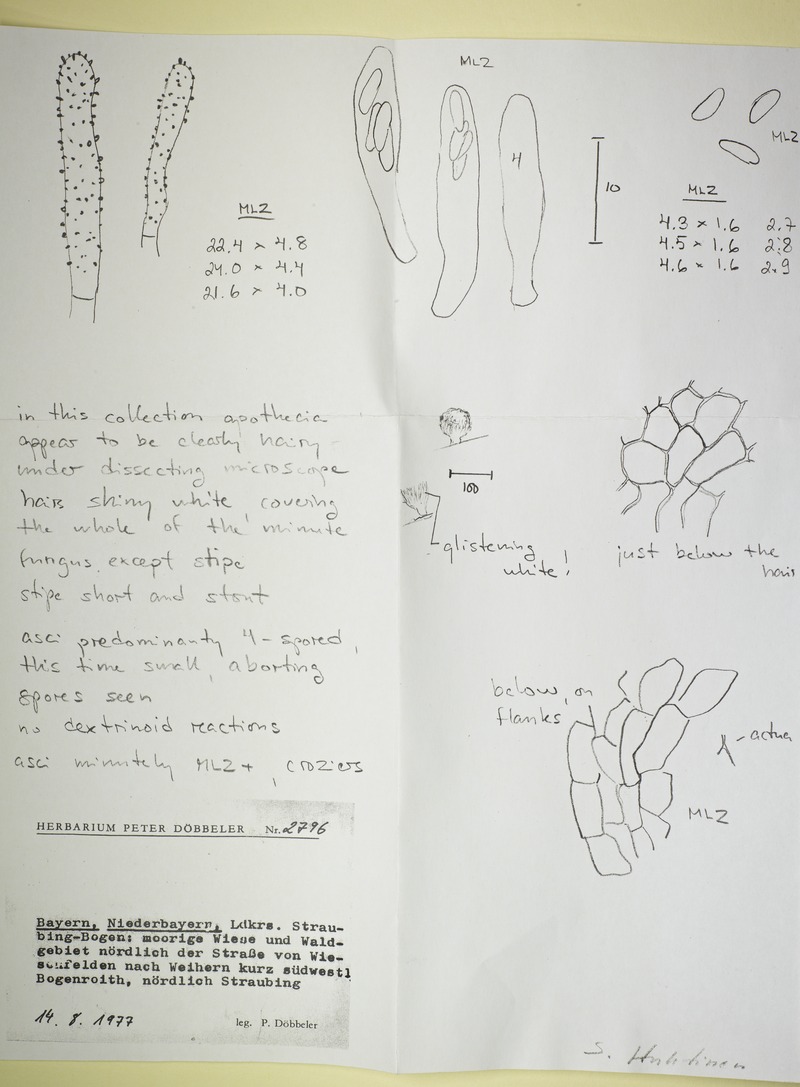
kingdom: Fungi
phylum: Ascomycota
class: Leotiomycetes
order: Helotiales
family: Hyphodiscaceae
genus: Hyphodiscus
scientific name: Hyphodiscus delitescens
